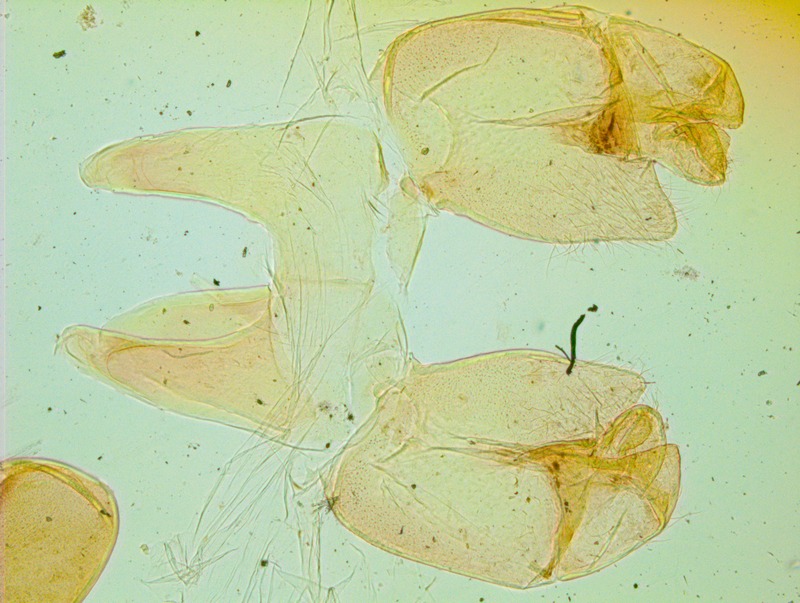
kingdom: Animalia
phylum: Arthropoda
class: Diplopoda
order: Sphaerotheriida
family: Cyliosomatidae
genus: Cyliosoma
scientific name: Cyliosoma queenslandiae
